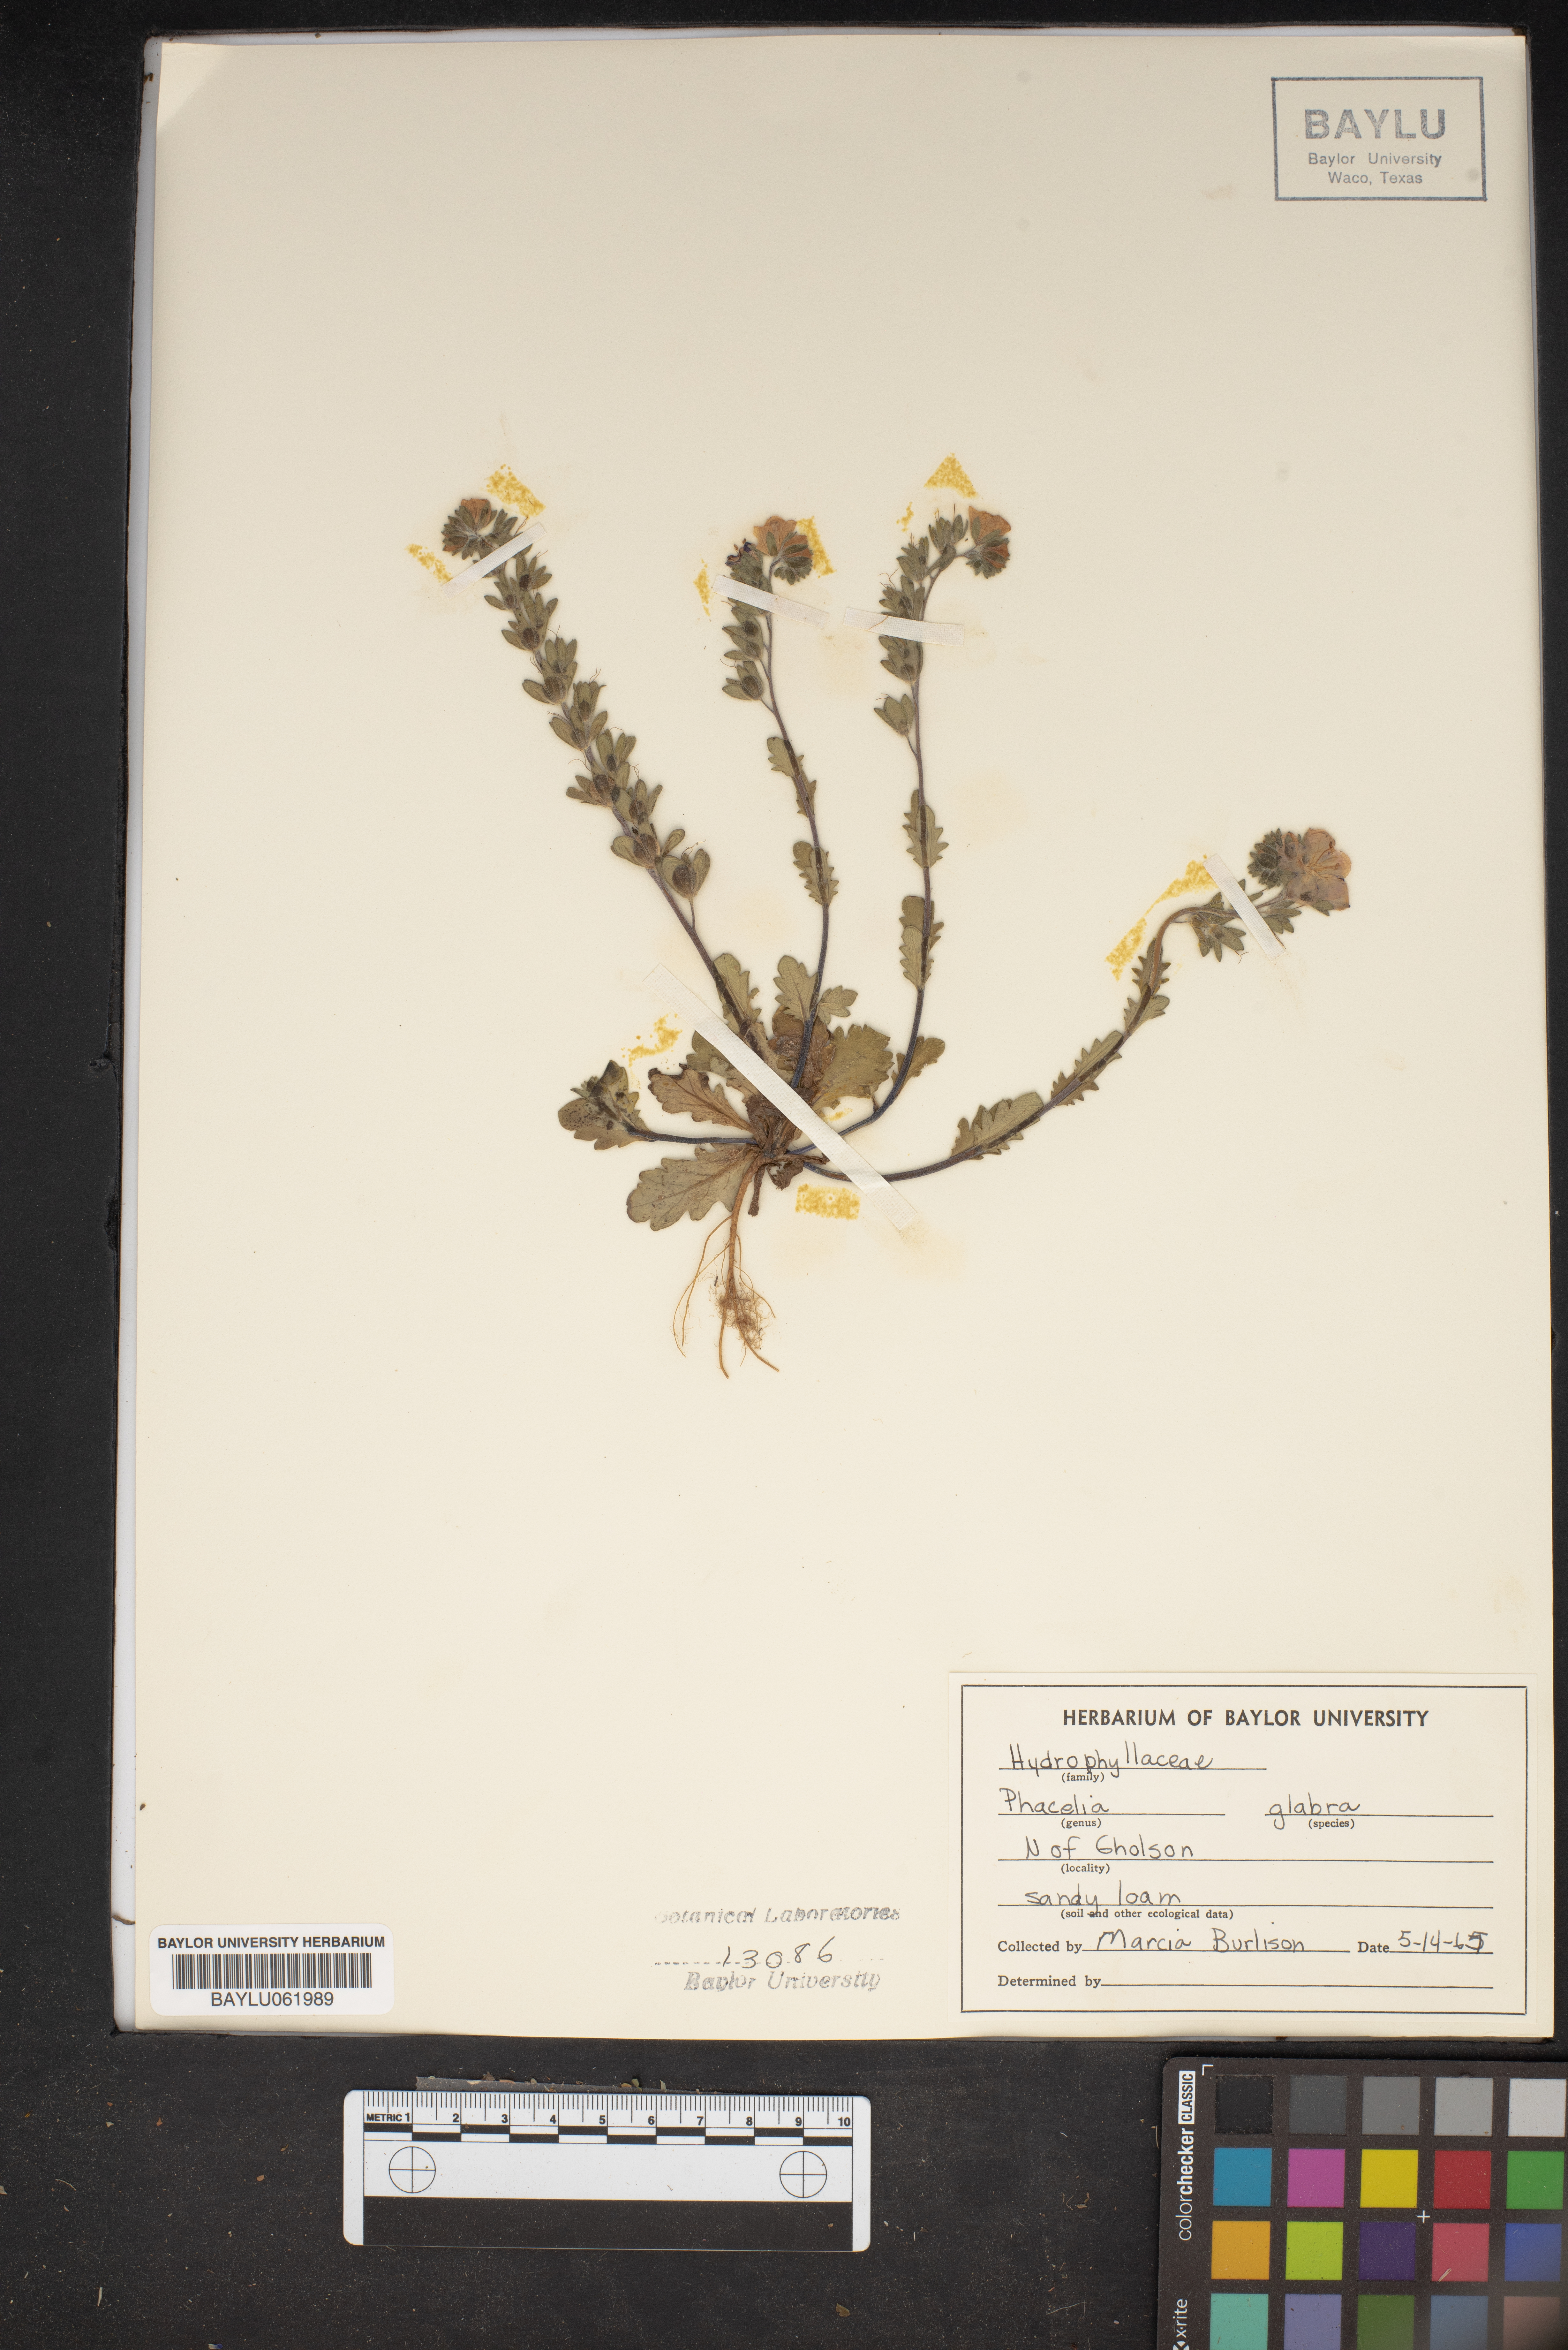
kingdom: Plantae
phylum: Tracheophyta
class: Magnoliopsida
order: Boraginales
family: Hydrophyllaceae
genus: Phacelia
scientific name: Phacelia glabra
